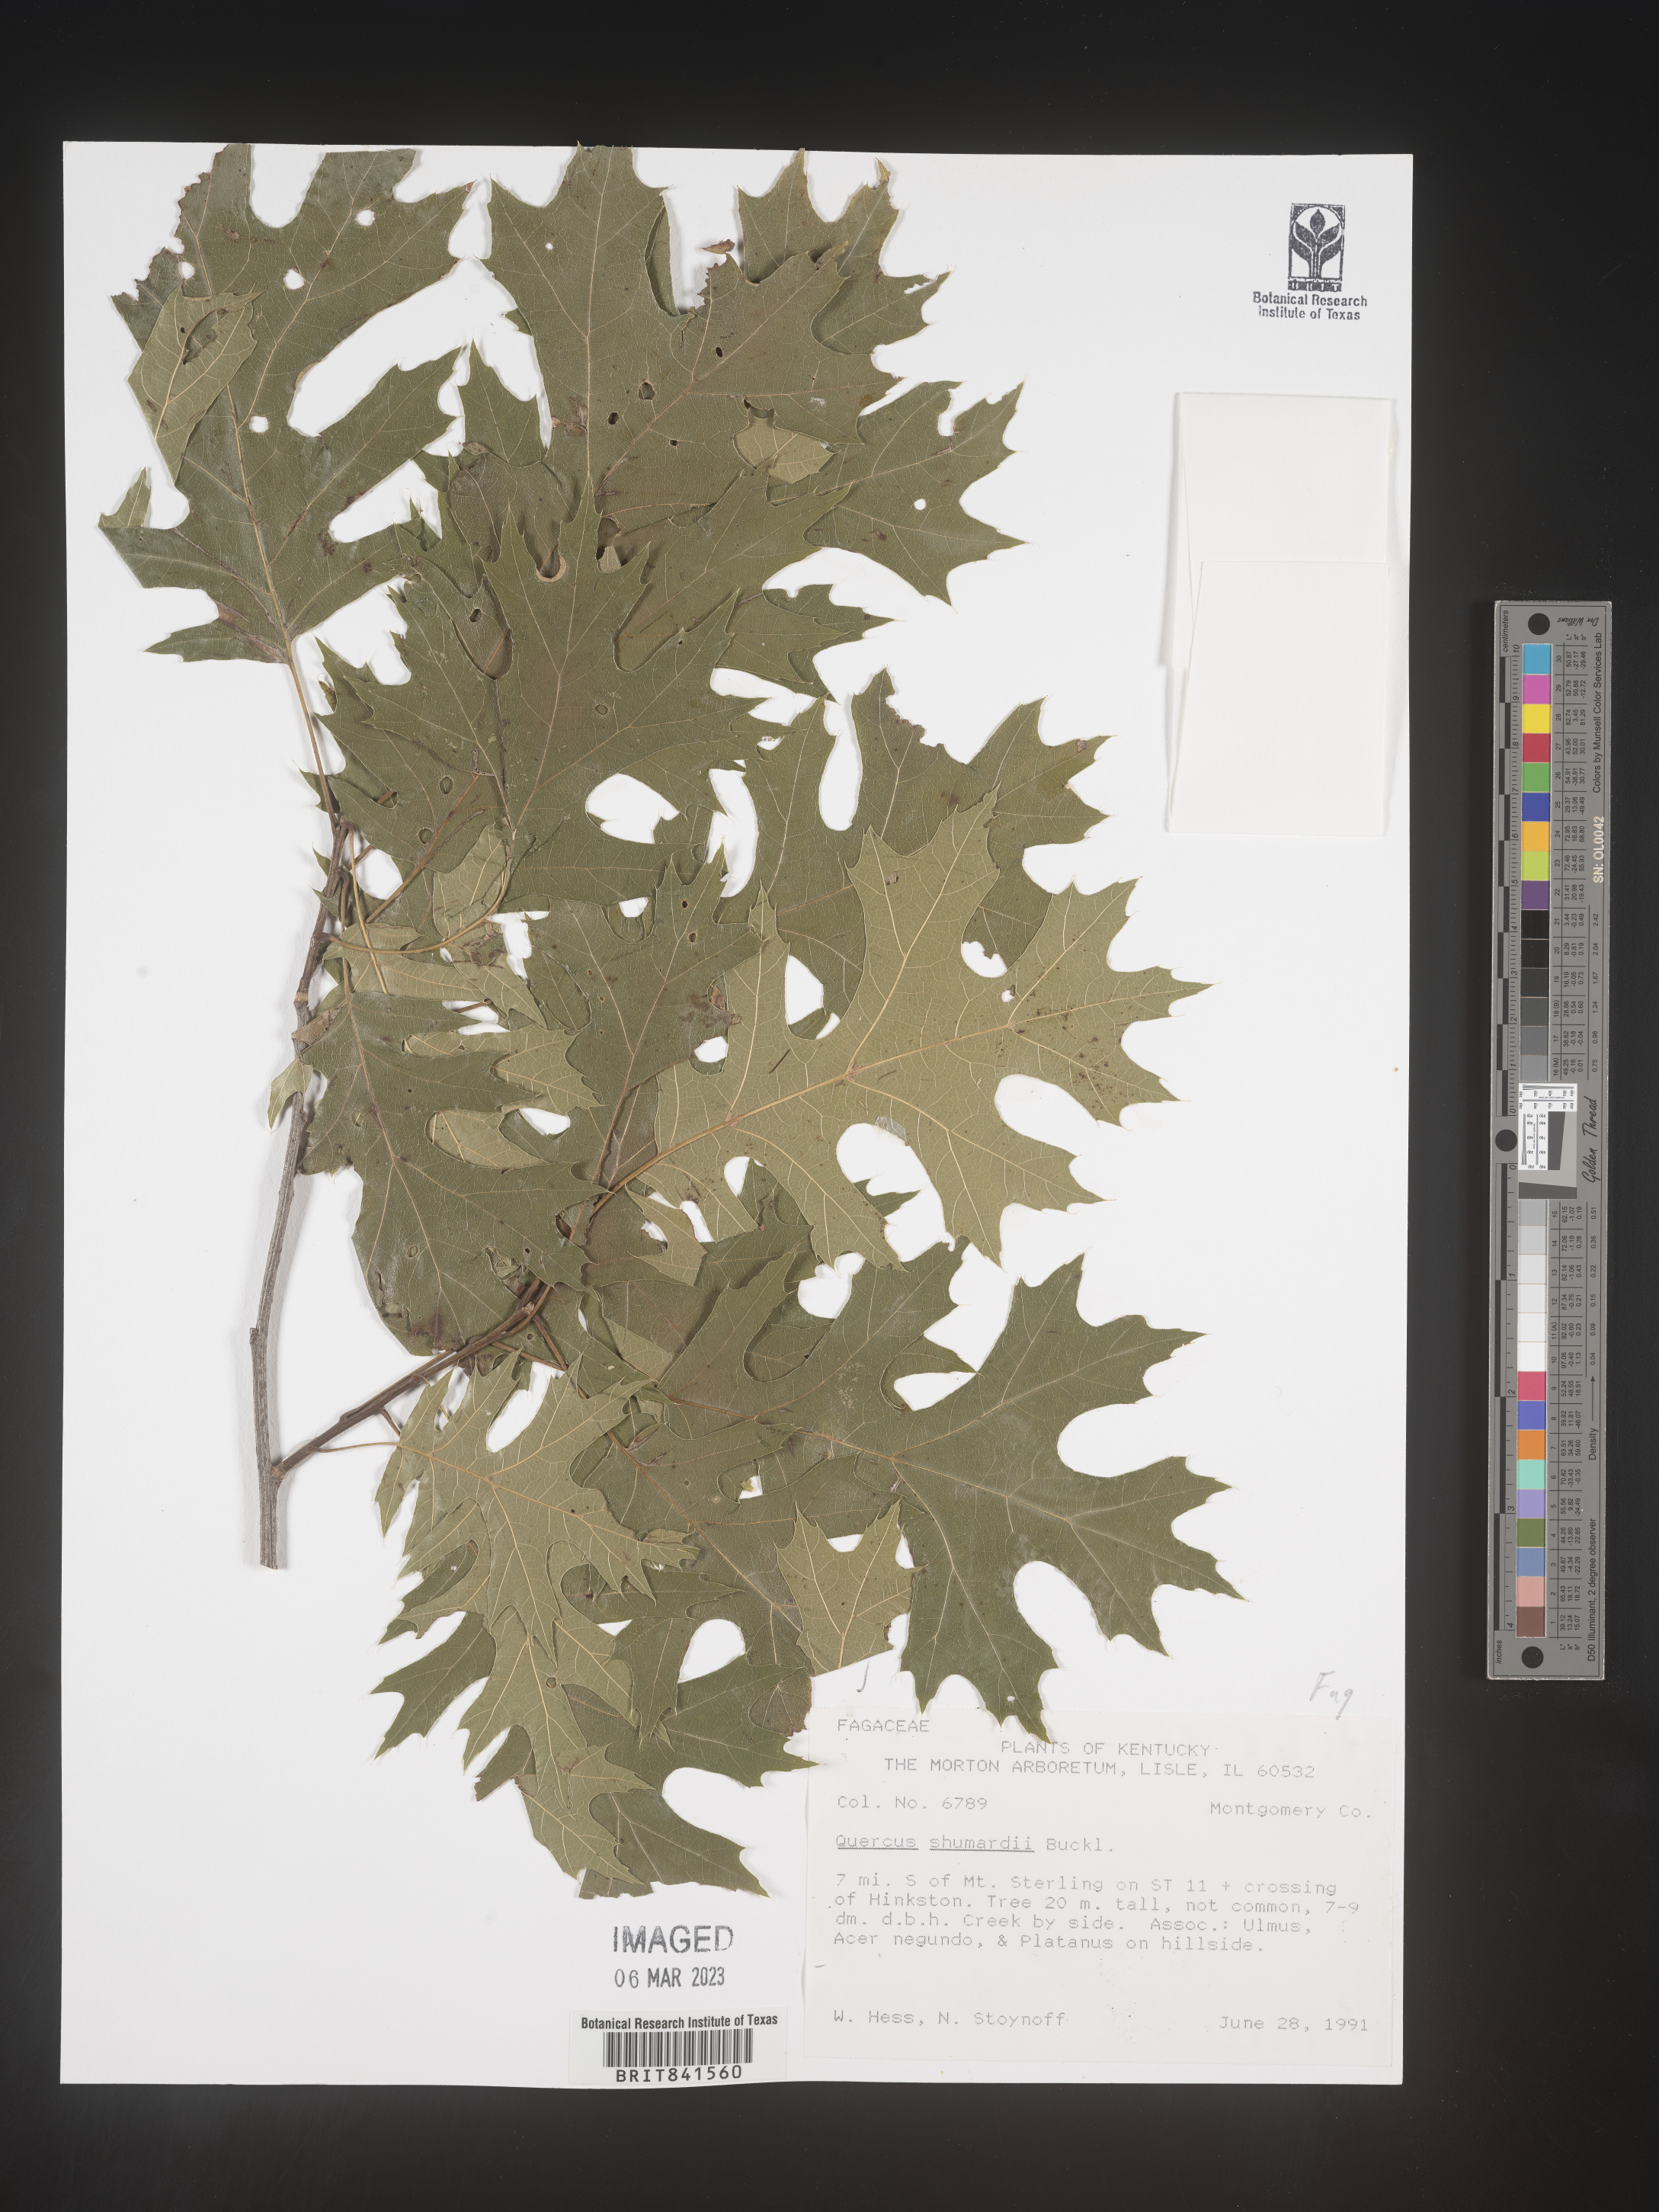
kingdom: Plantae
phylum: Tracheophyta
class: Magnoliopsida
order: Fagales
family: Fagaceae
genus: Quercus
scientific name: Quercus shumardii
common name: Shumard oak
